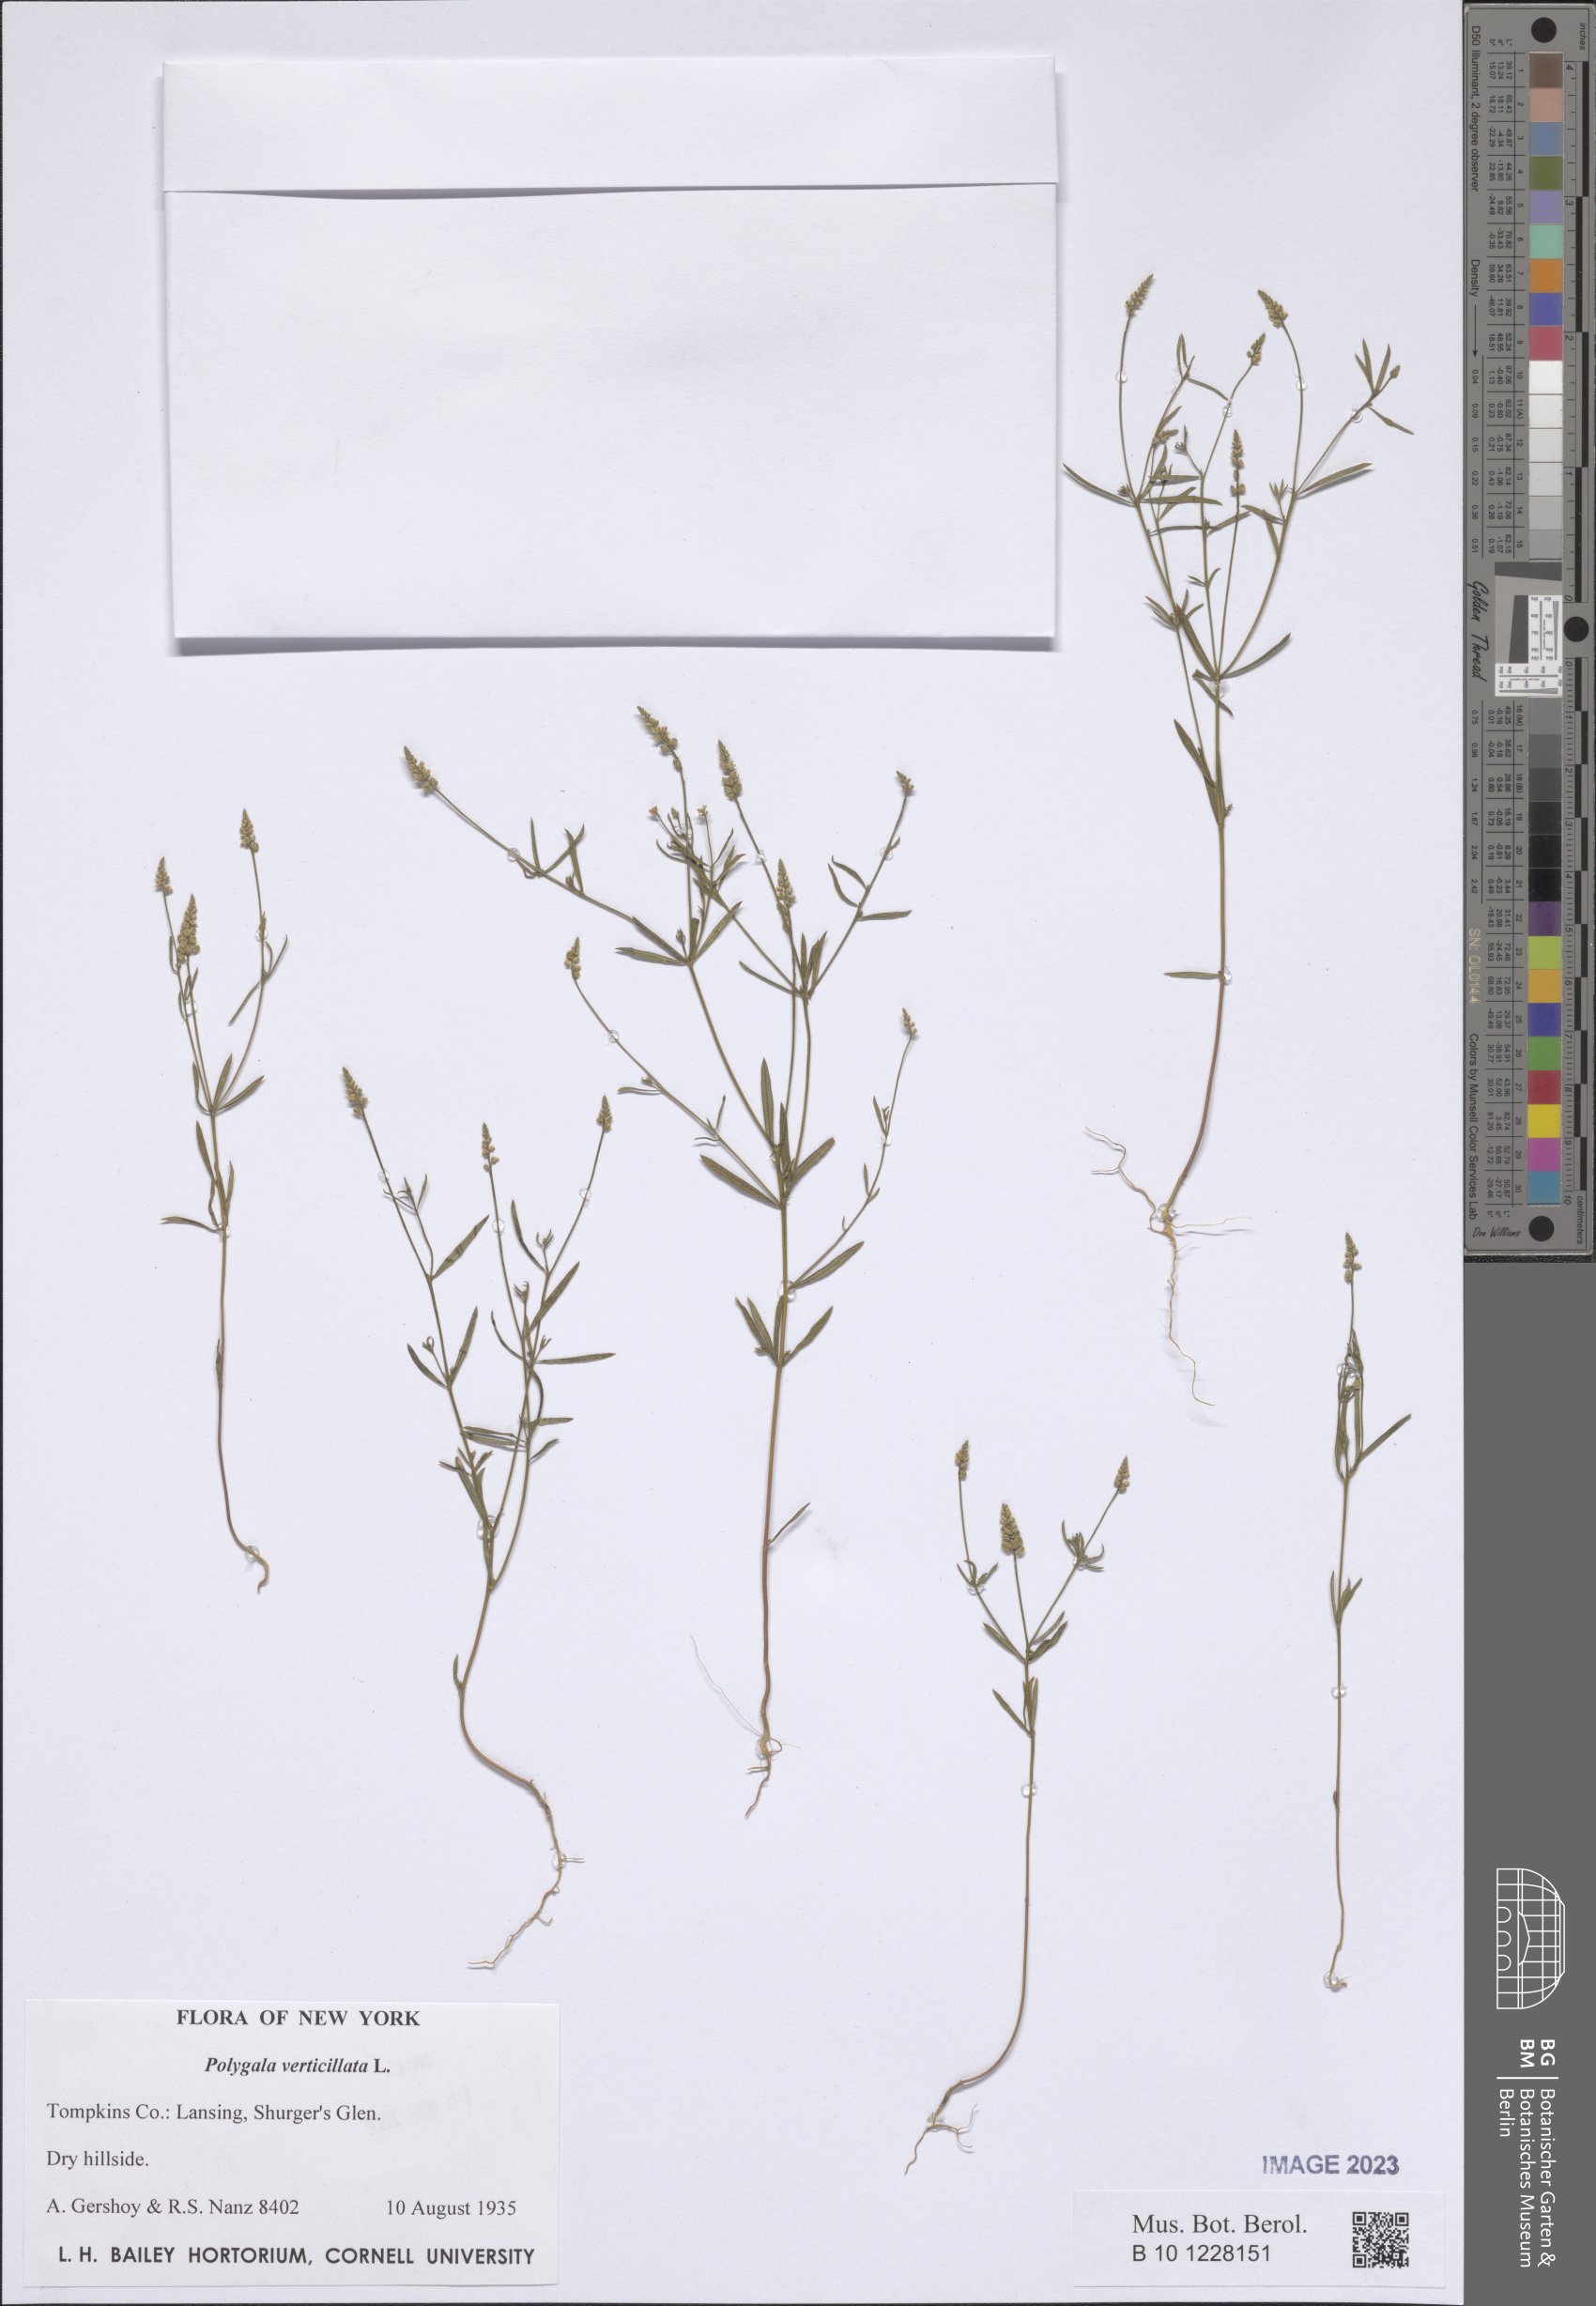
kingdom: Plantae
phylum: Tracheophyta
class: Magnoliopsida
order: Fabales
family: Polygalaceae
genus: Polygala
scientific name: Polygala verticillata
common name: Whorl milkwort
